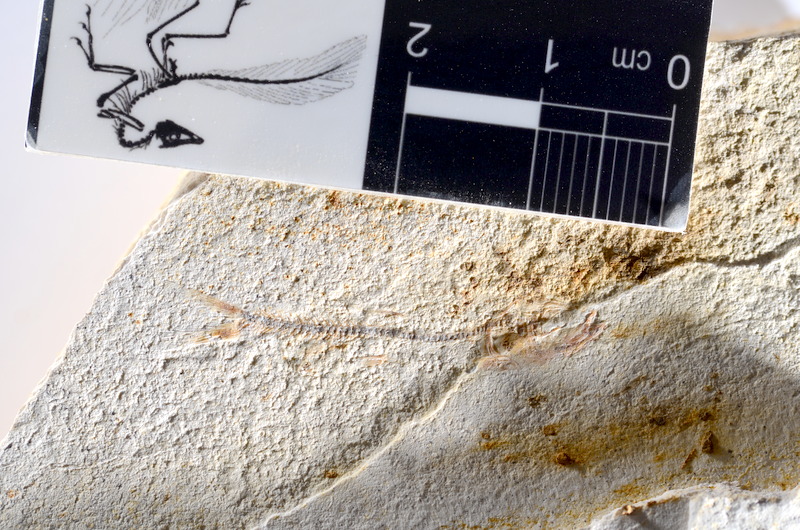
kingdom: Animalia
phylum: Chordata
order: Salmoniformes
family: Orthogonikleithridae
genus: Orthogonikleithrus
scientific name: Orthogonikleithrus hoelli
